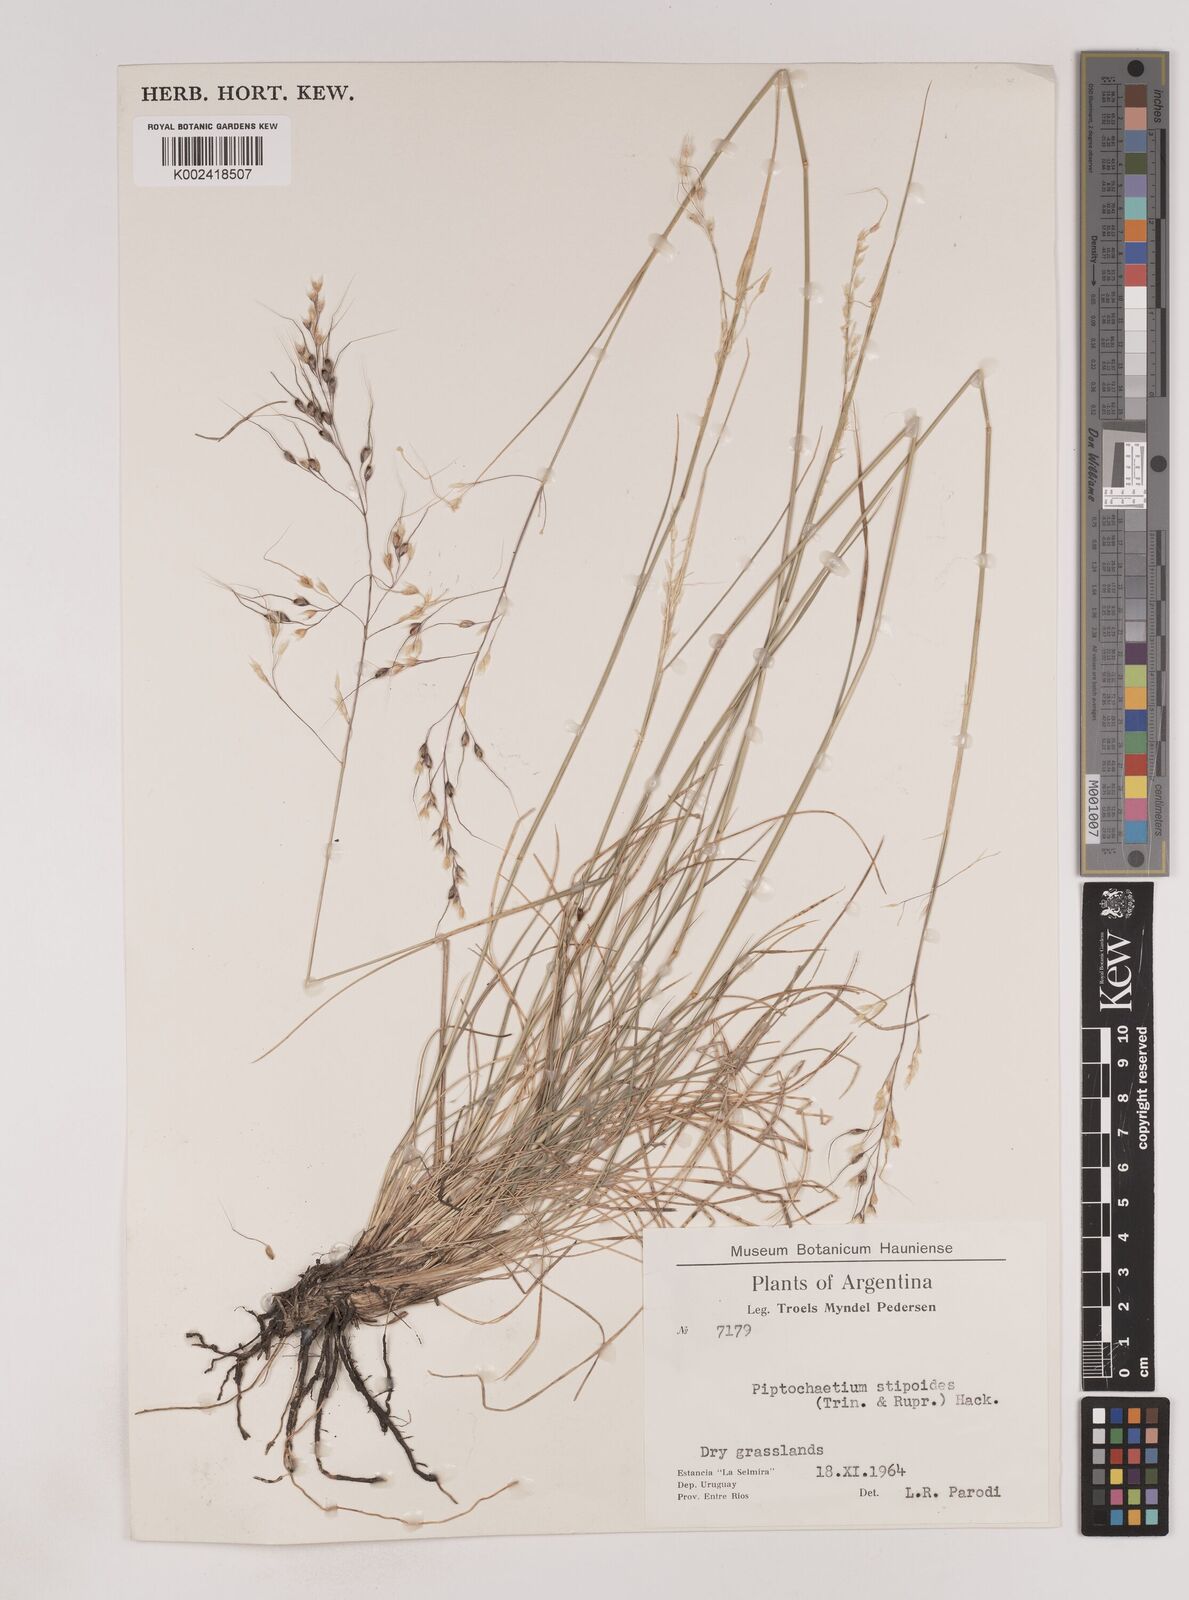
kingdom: Plantae
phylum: Tracheophyta
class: Liliopsida
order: Poales
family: Poaceae
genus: Piptochaetium
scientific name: Piptochaetium stipoides
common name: Purple speargrass
